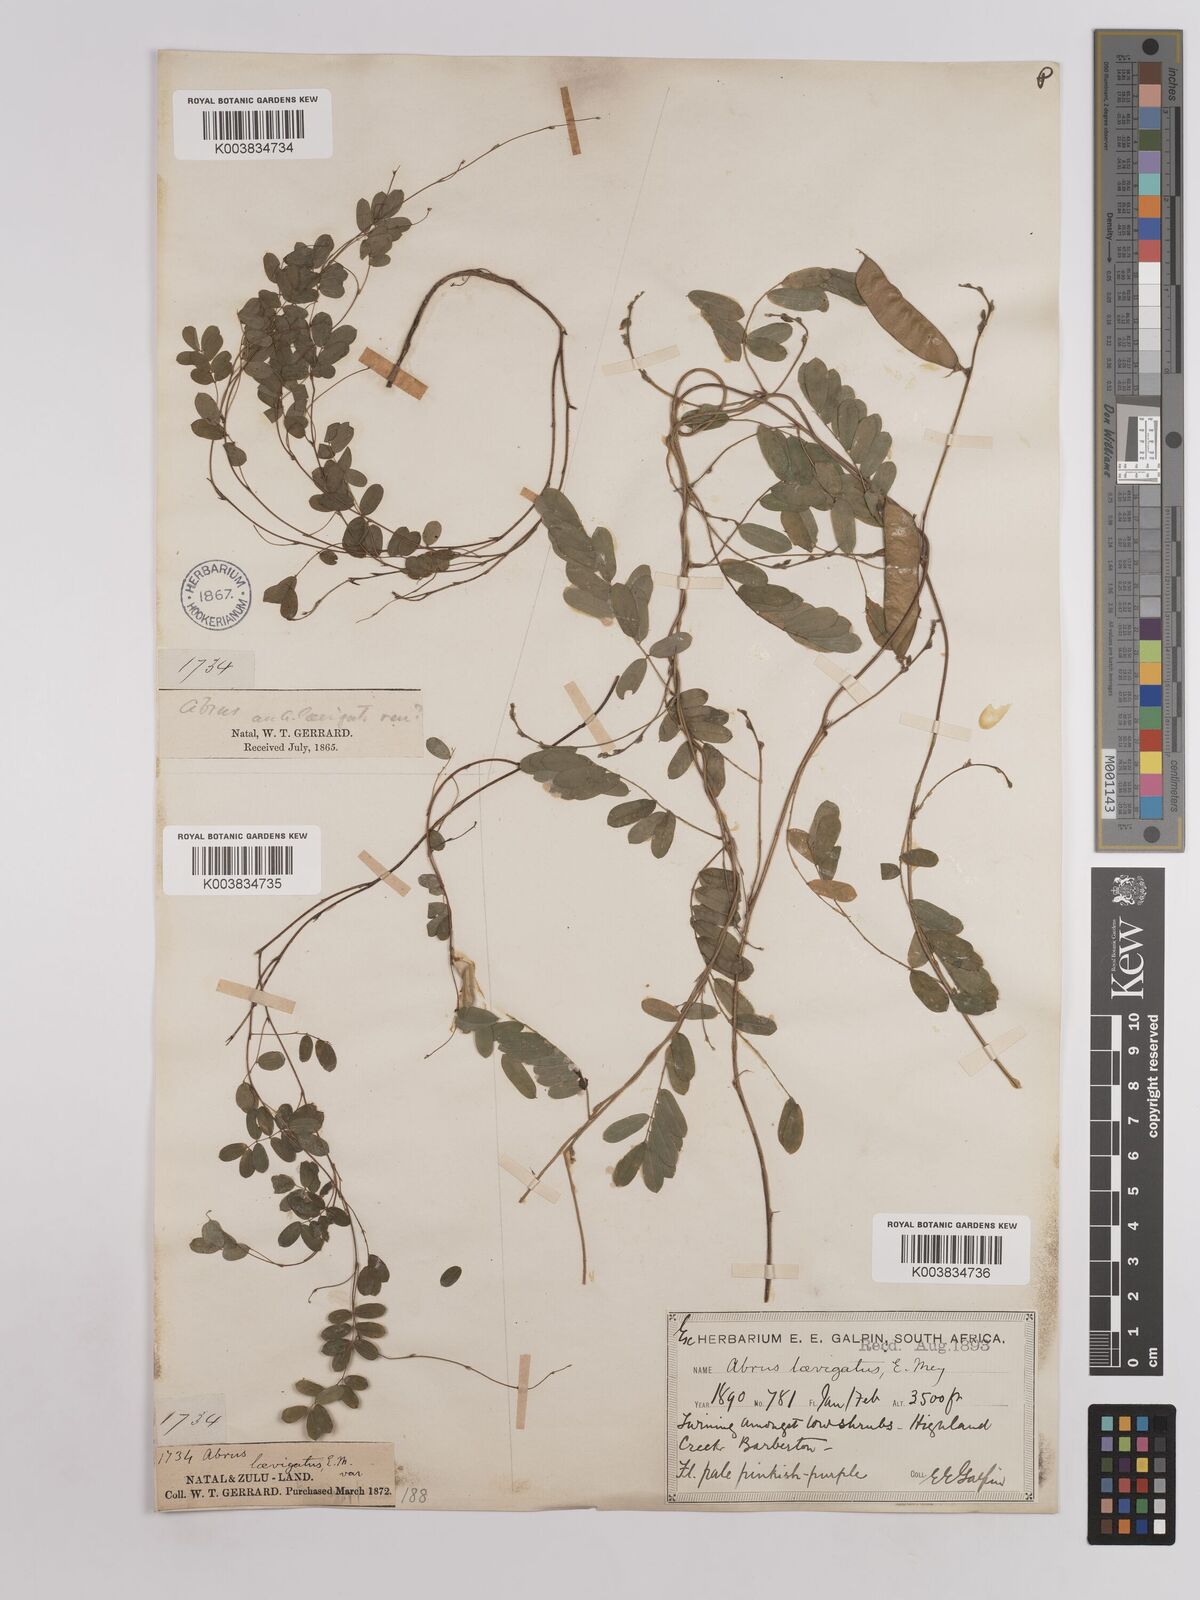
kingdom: Plantae
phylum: Tracheophyta
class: Magnoliopsida
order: Fabales
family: Fabaceae
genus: Abrus
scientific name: Abrus laevigatus
